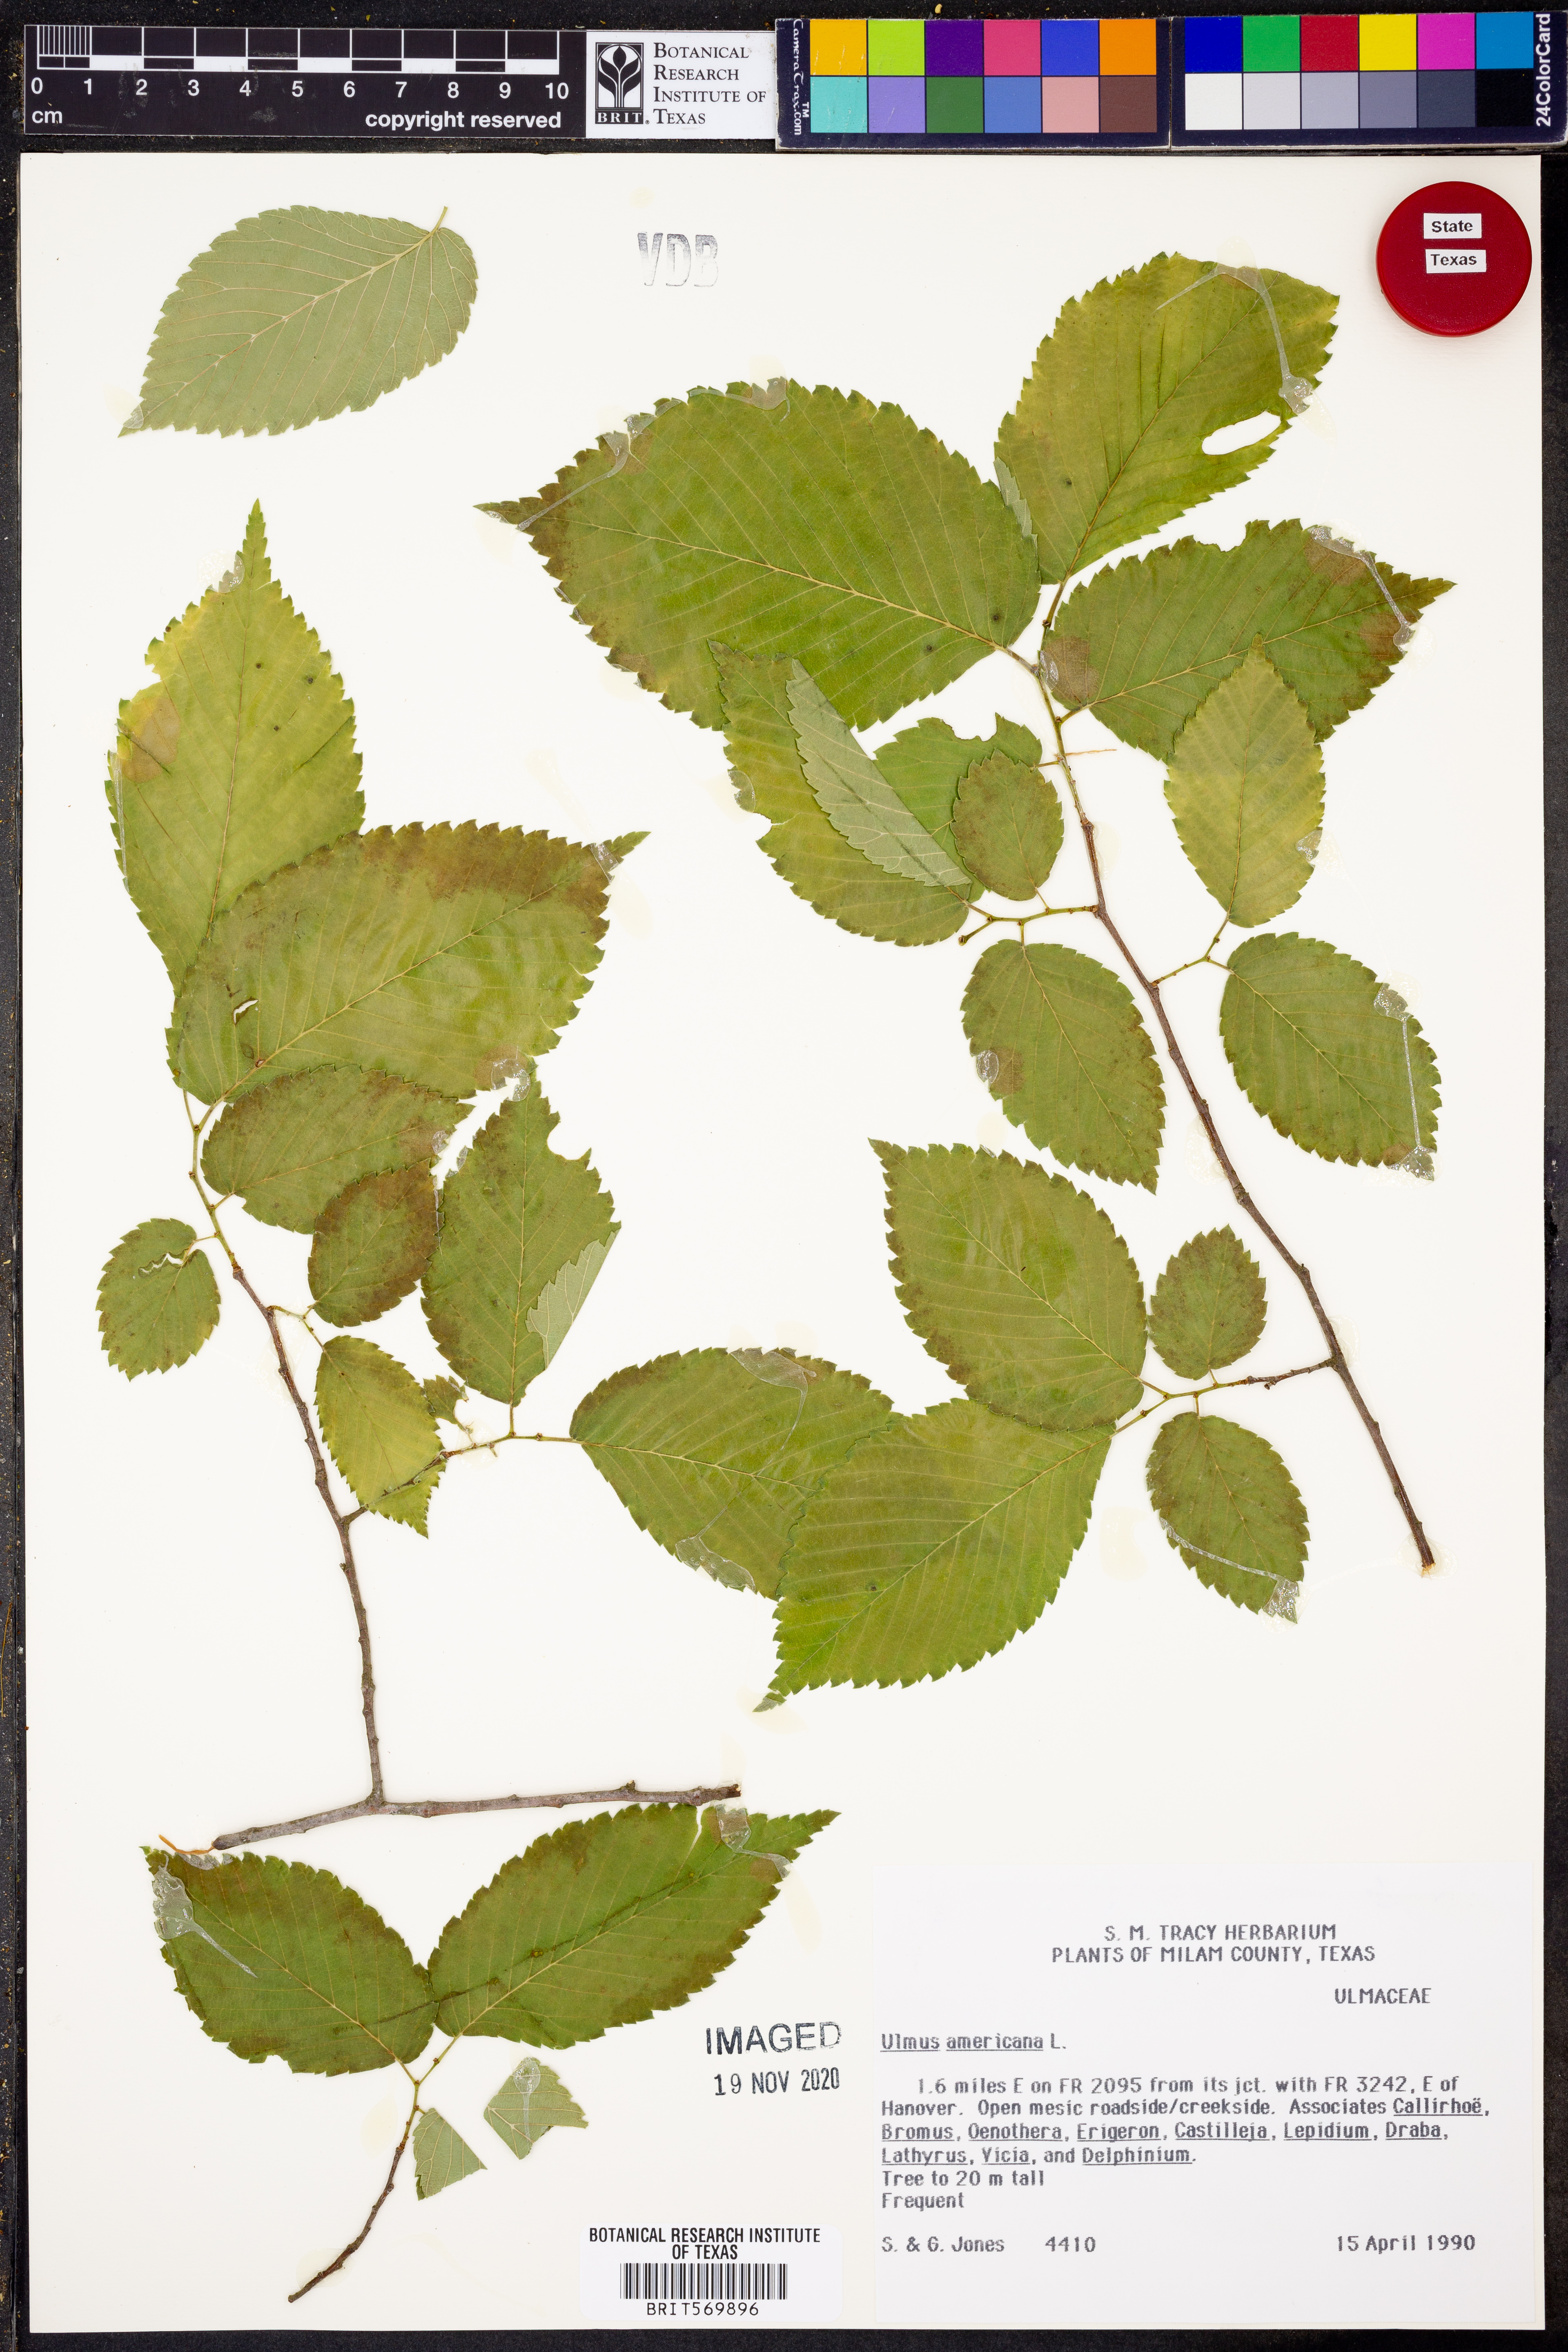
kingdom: Plantae
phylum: Tracheophyta
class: Magnoliopsida
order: Rosales
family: Ulmaceae
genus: Ulmus
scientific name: Ulmus americana
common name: American elm
